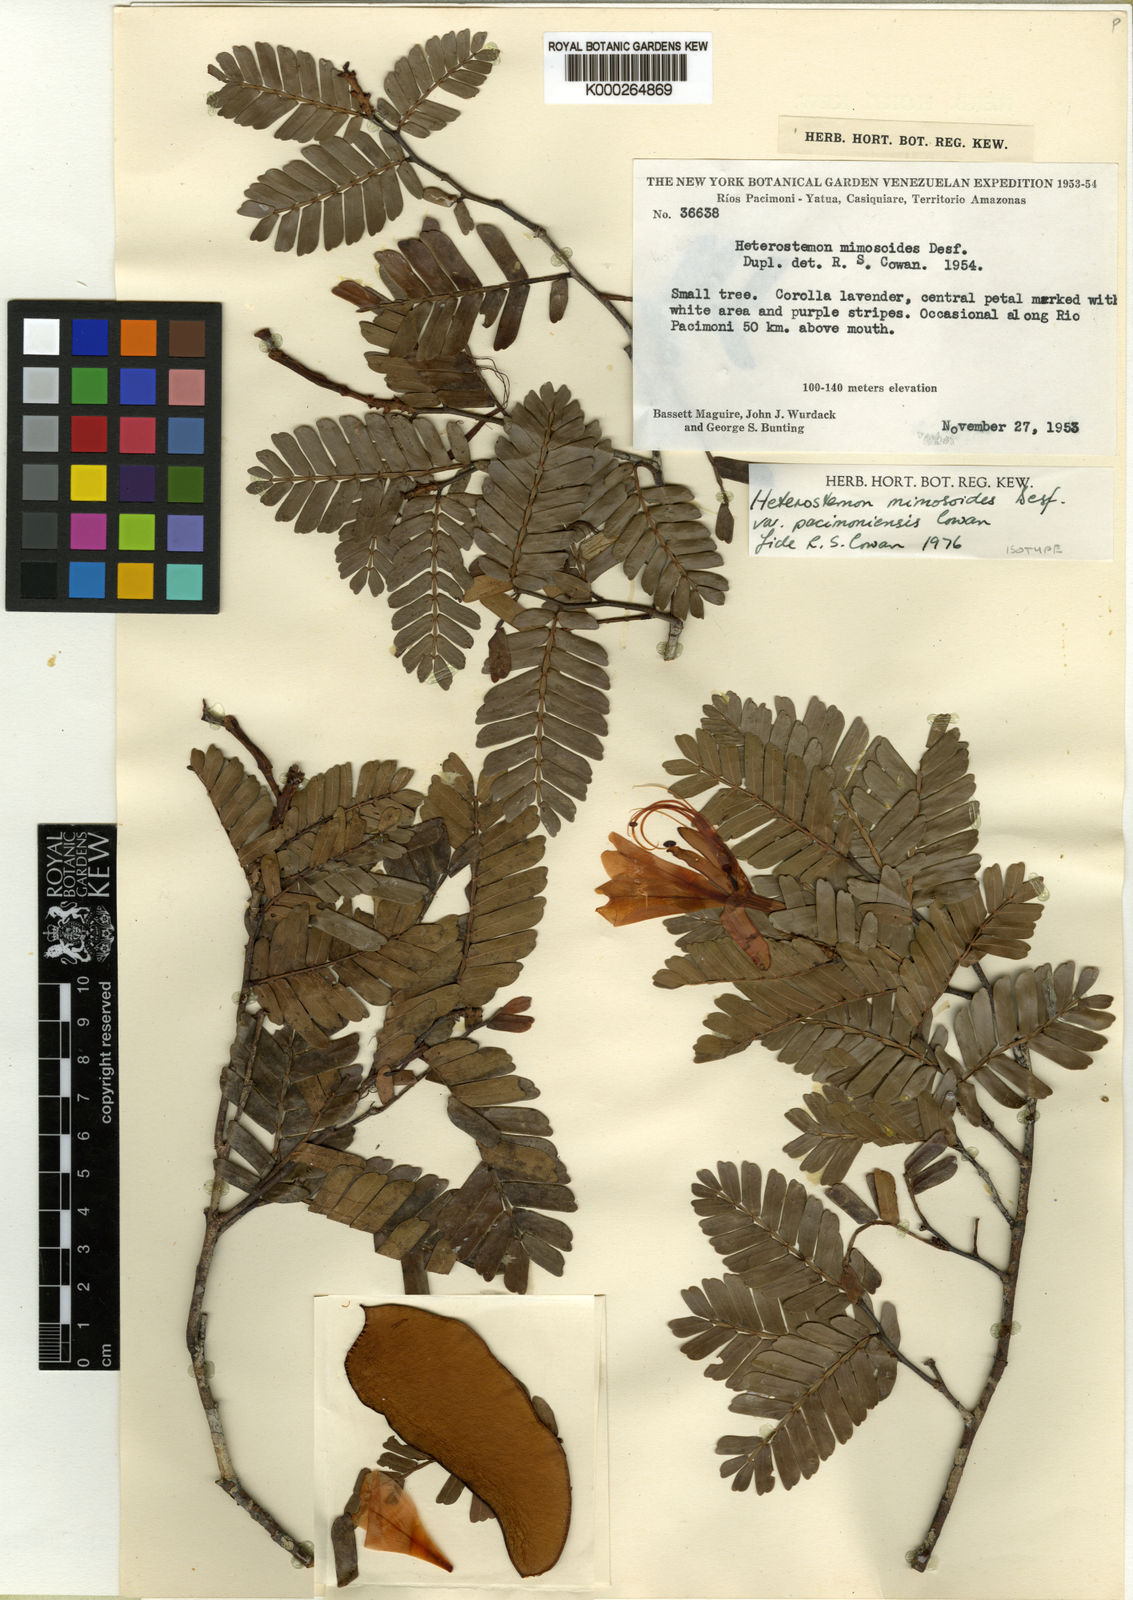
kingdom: Plantae
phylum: Tracheophyta
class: Magnoliopsida
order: Fabales
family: Fabaceae
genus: Heterostemon
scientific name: Heterostemon mimosoides
